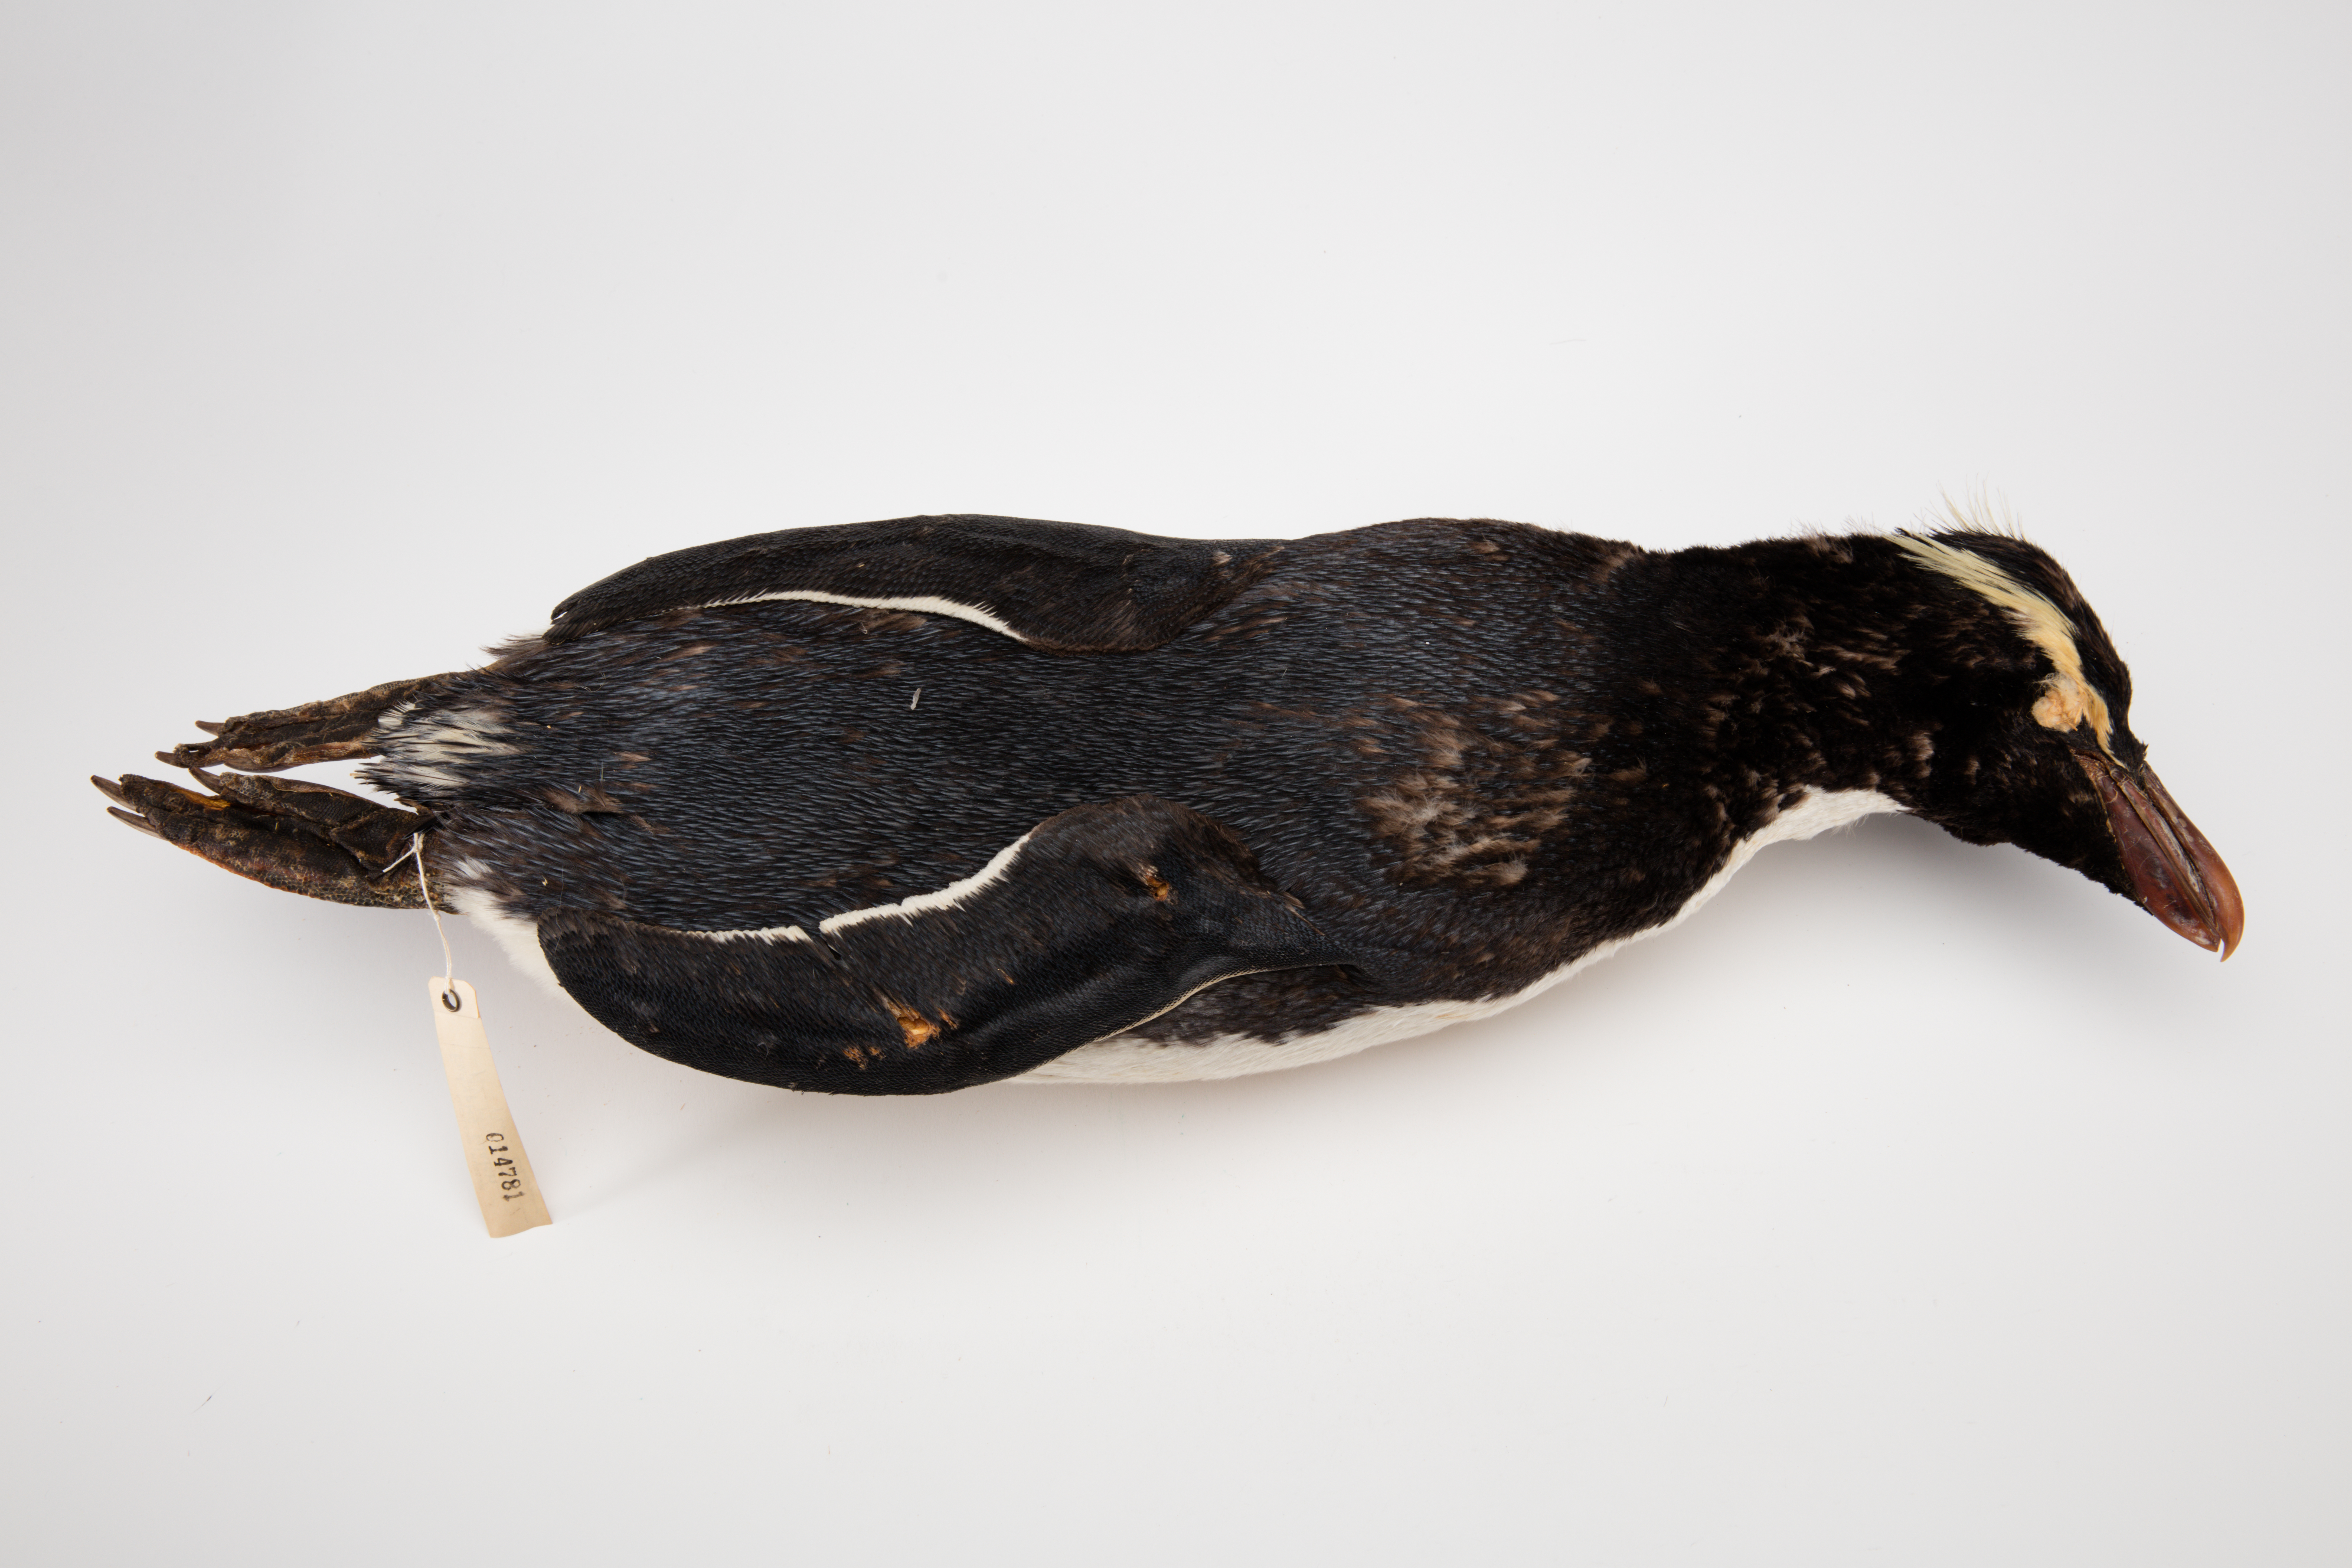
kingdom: Animalia
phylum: Chordata
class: Aves
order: Sphenisciformes
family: Spheniscidae
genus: Eudyptes
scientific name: Eudyptes sclateri
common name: Erect-crested penguin
